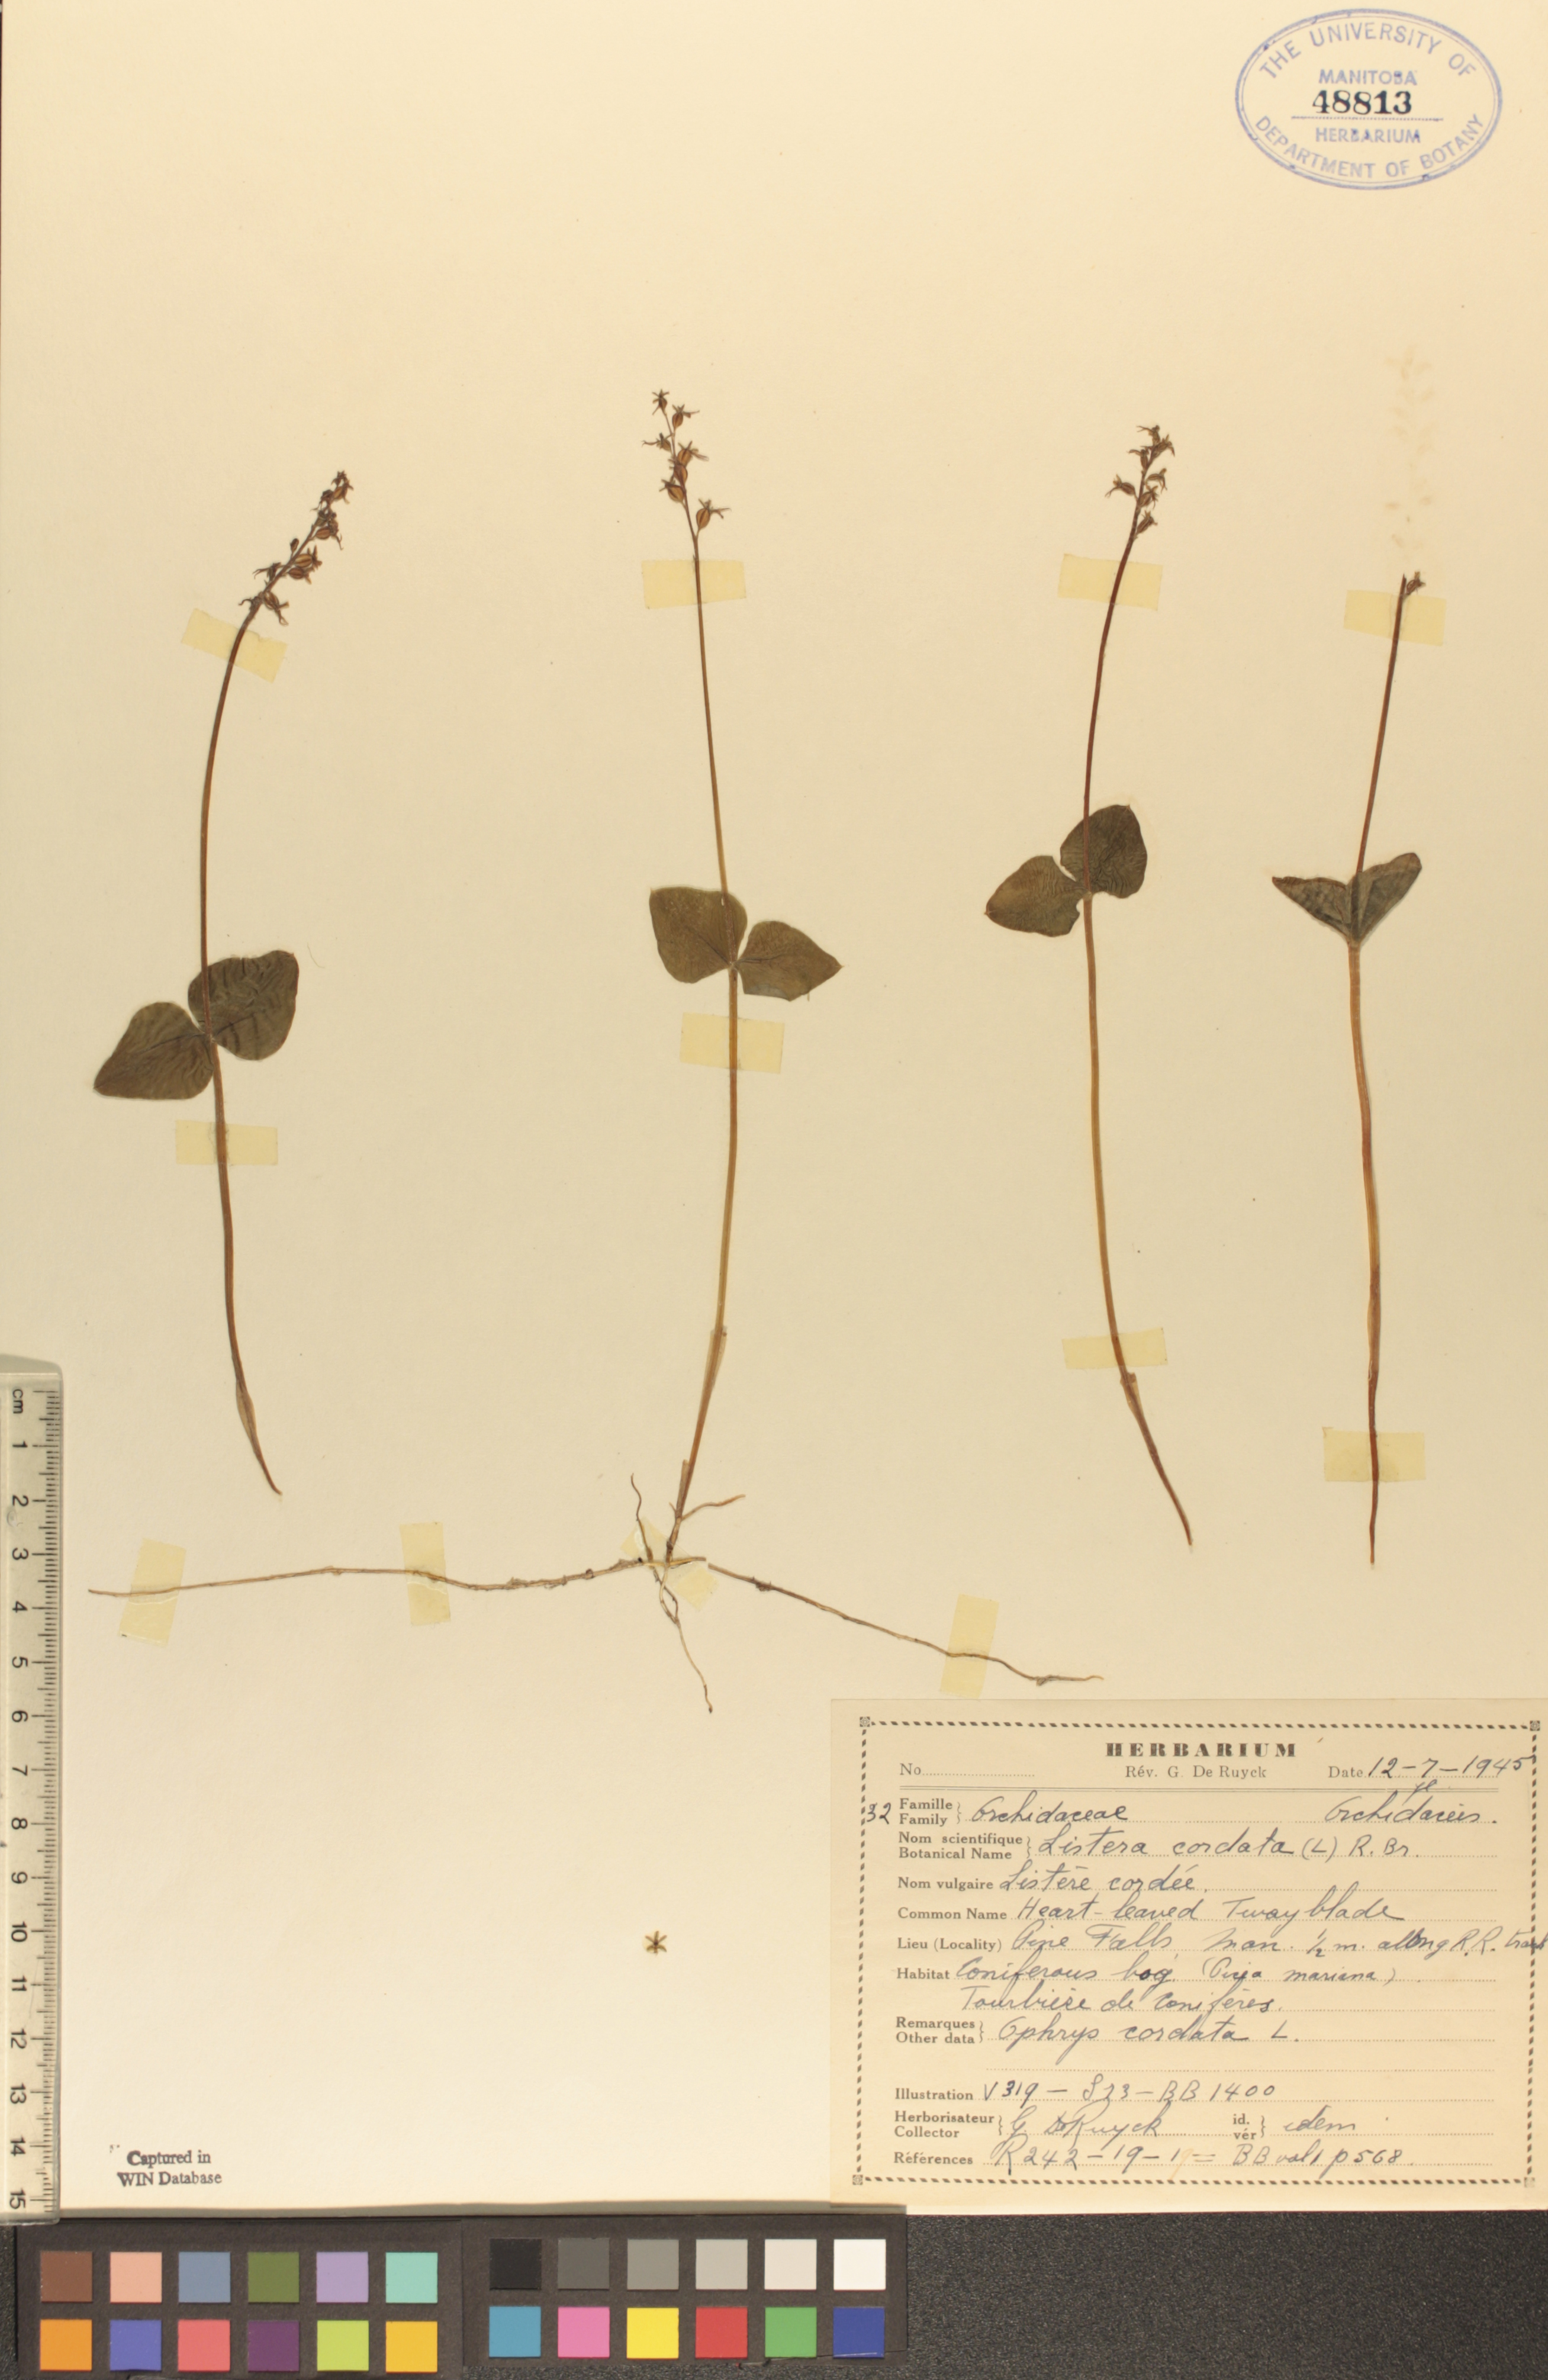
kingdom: Plantae
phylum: Tracheophyta
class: Liliopsida
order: Asparagales
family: Orchidaceae
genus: Neottia
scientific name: Neottia cordata
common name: Lesser twayblade
